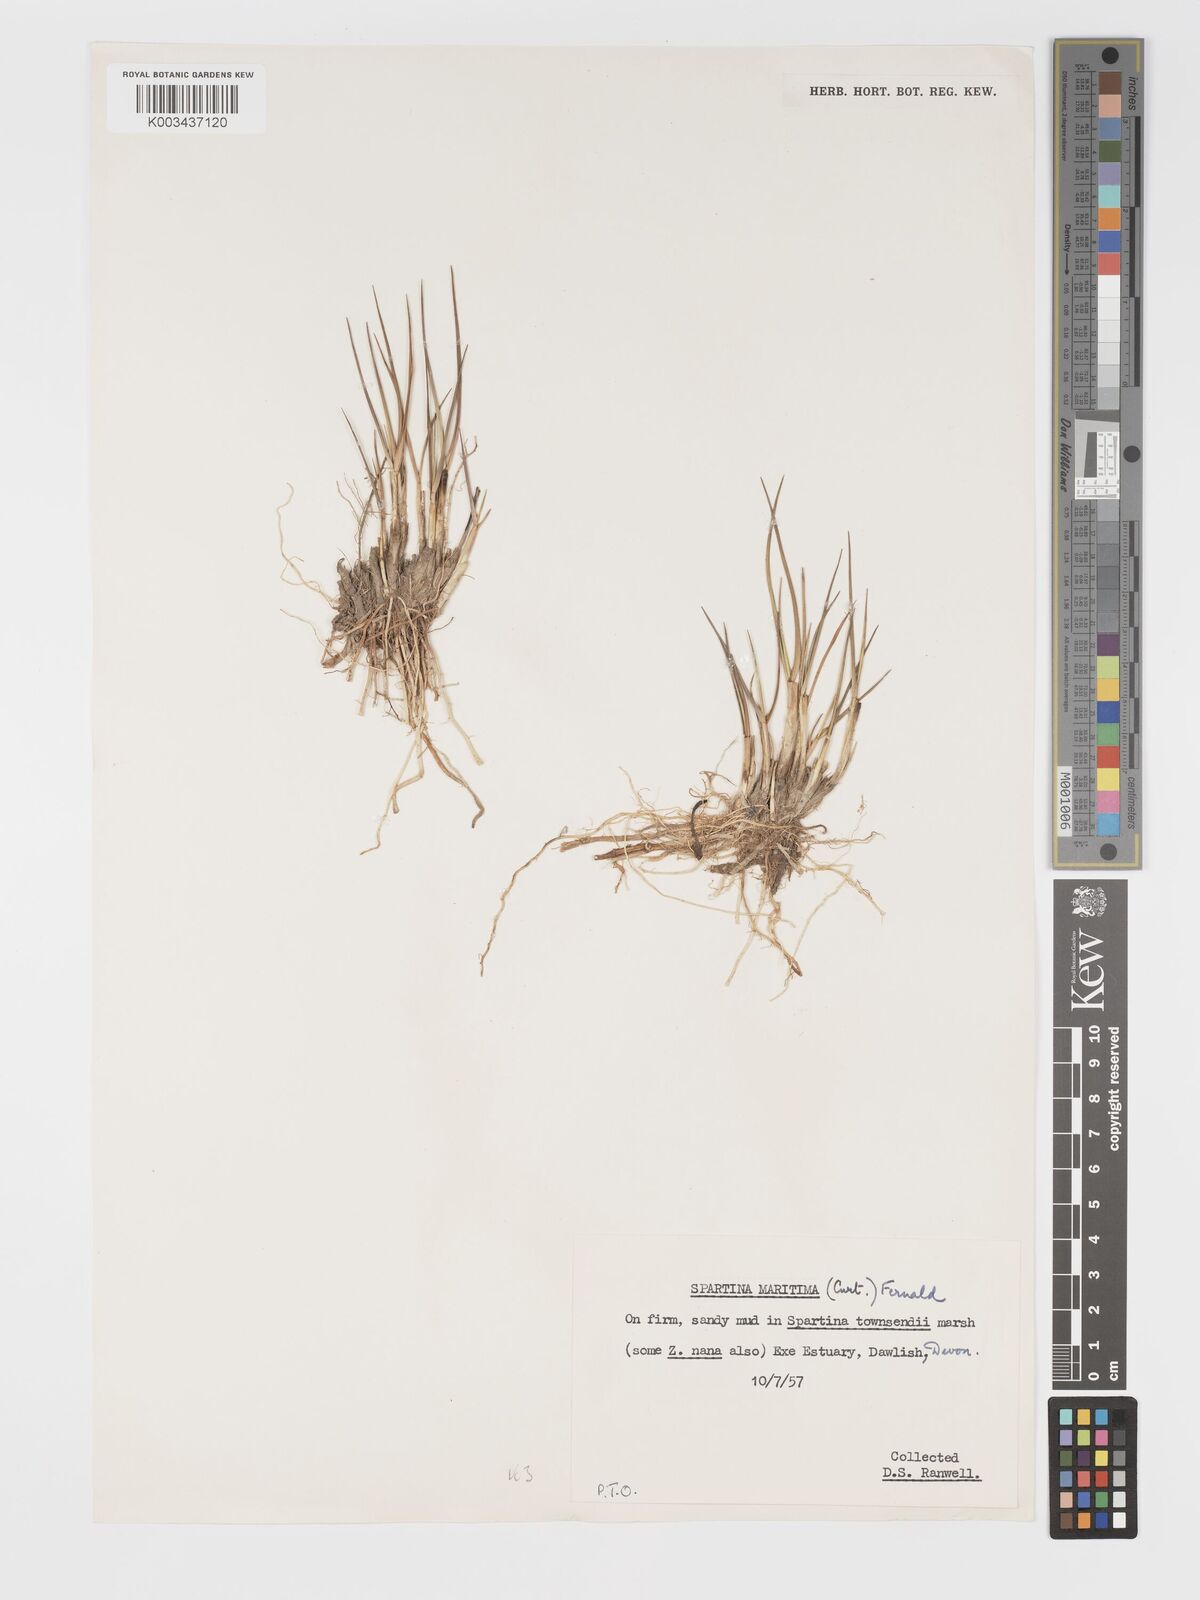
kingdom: Plantae
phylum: Tracheophyta
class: Liliopsida
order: Poales
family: Poaceae
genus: Sporobolus
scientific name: Sporobolus maritimus
